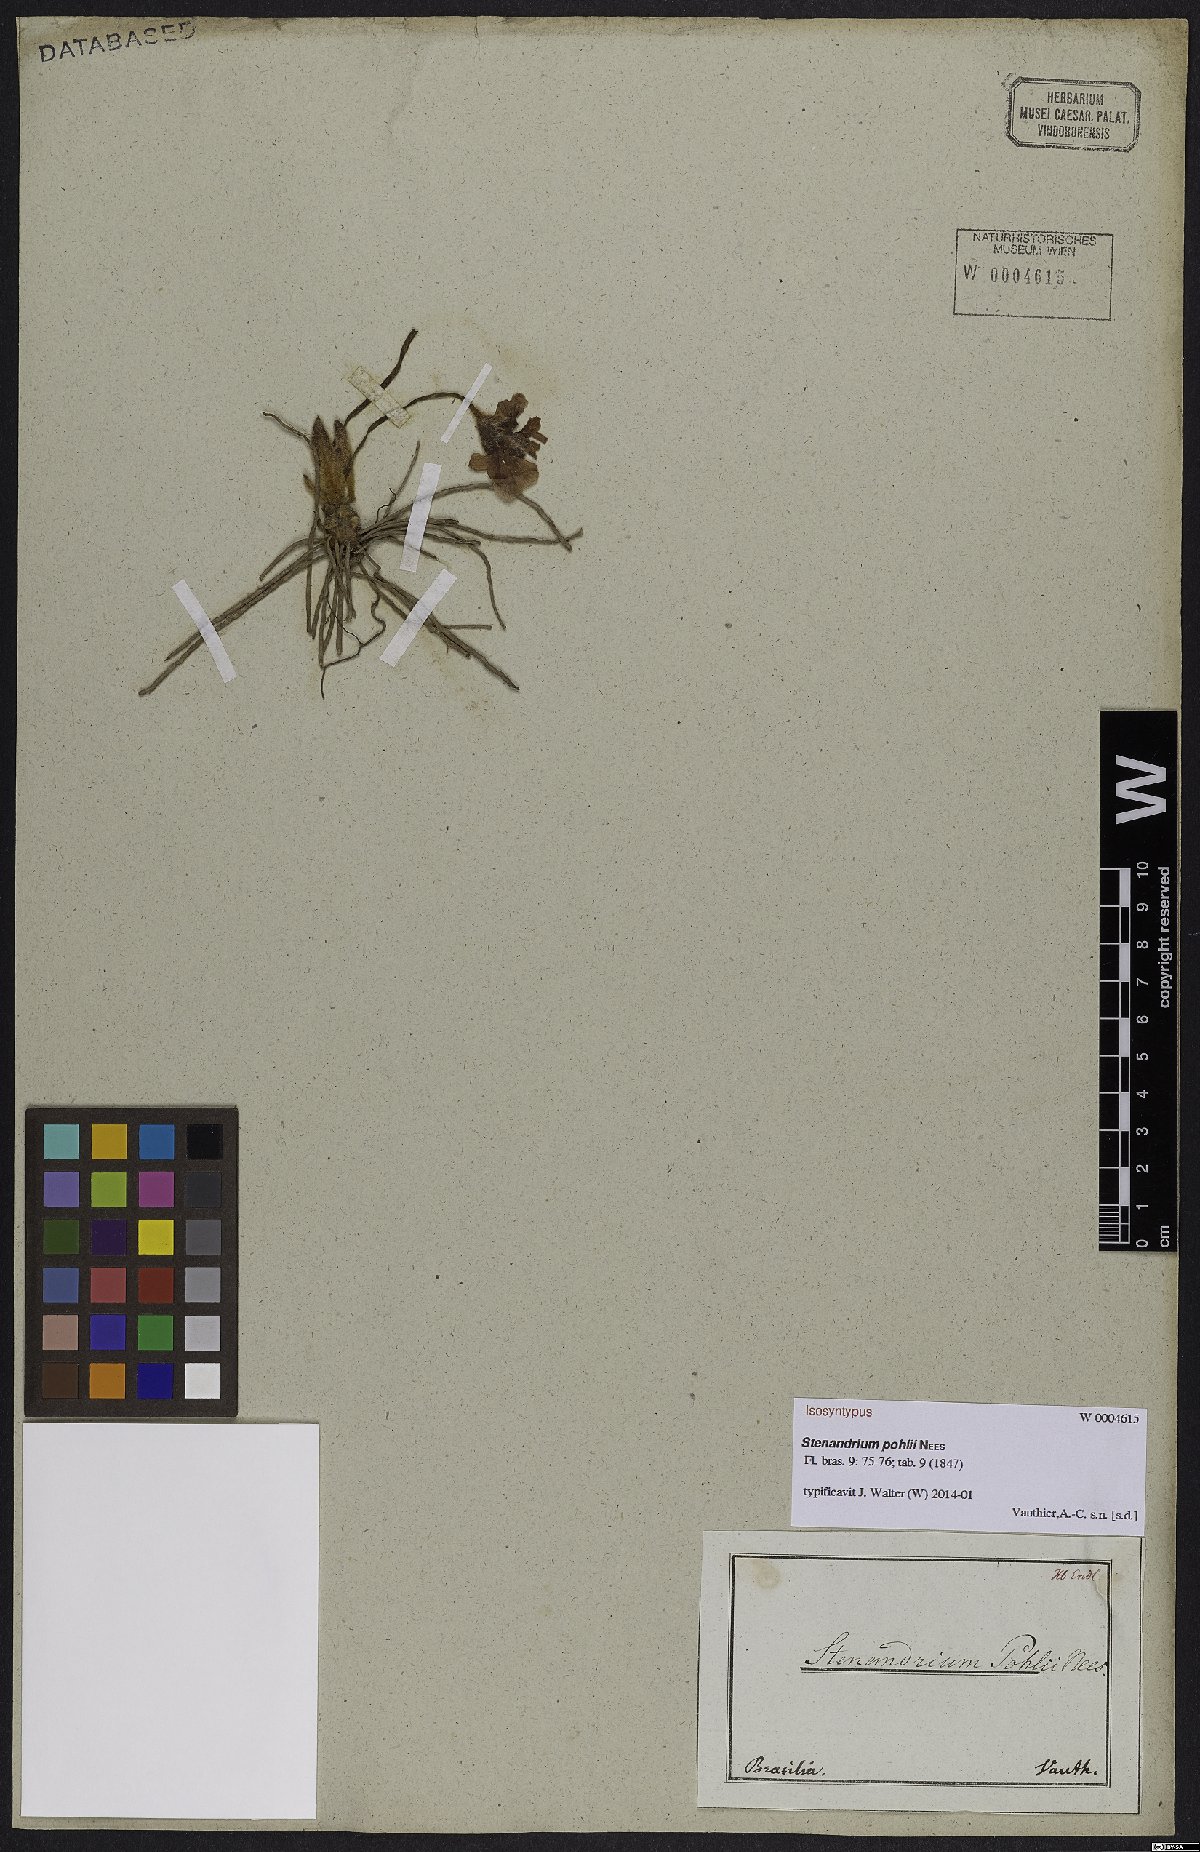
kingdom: Plantae
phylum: Tracheophyta
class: Magnoliopsida
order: Lamiales
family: Acanthaceae
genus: Stenandrium
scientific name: Stenandrium pohlii
